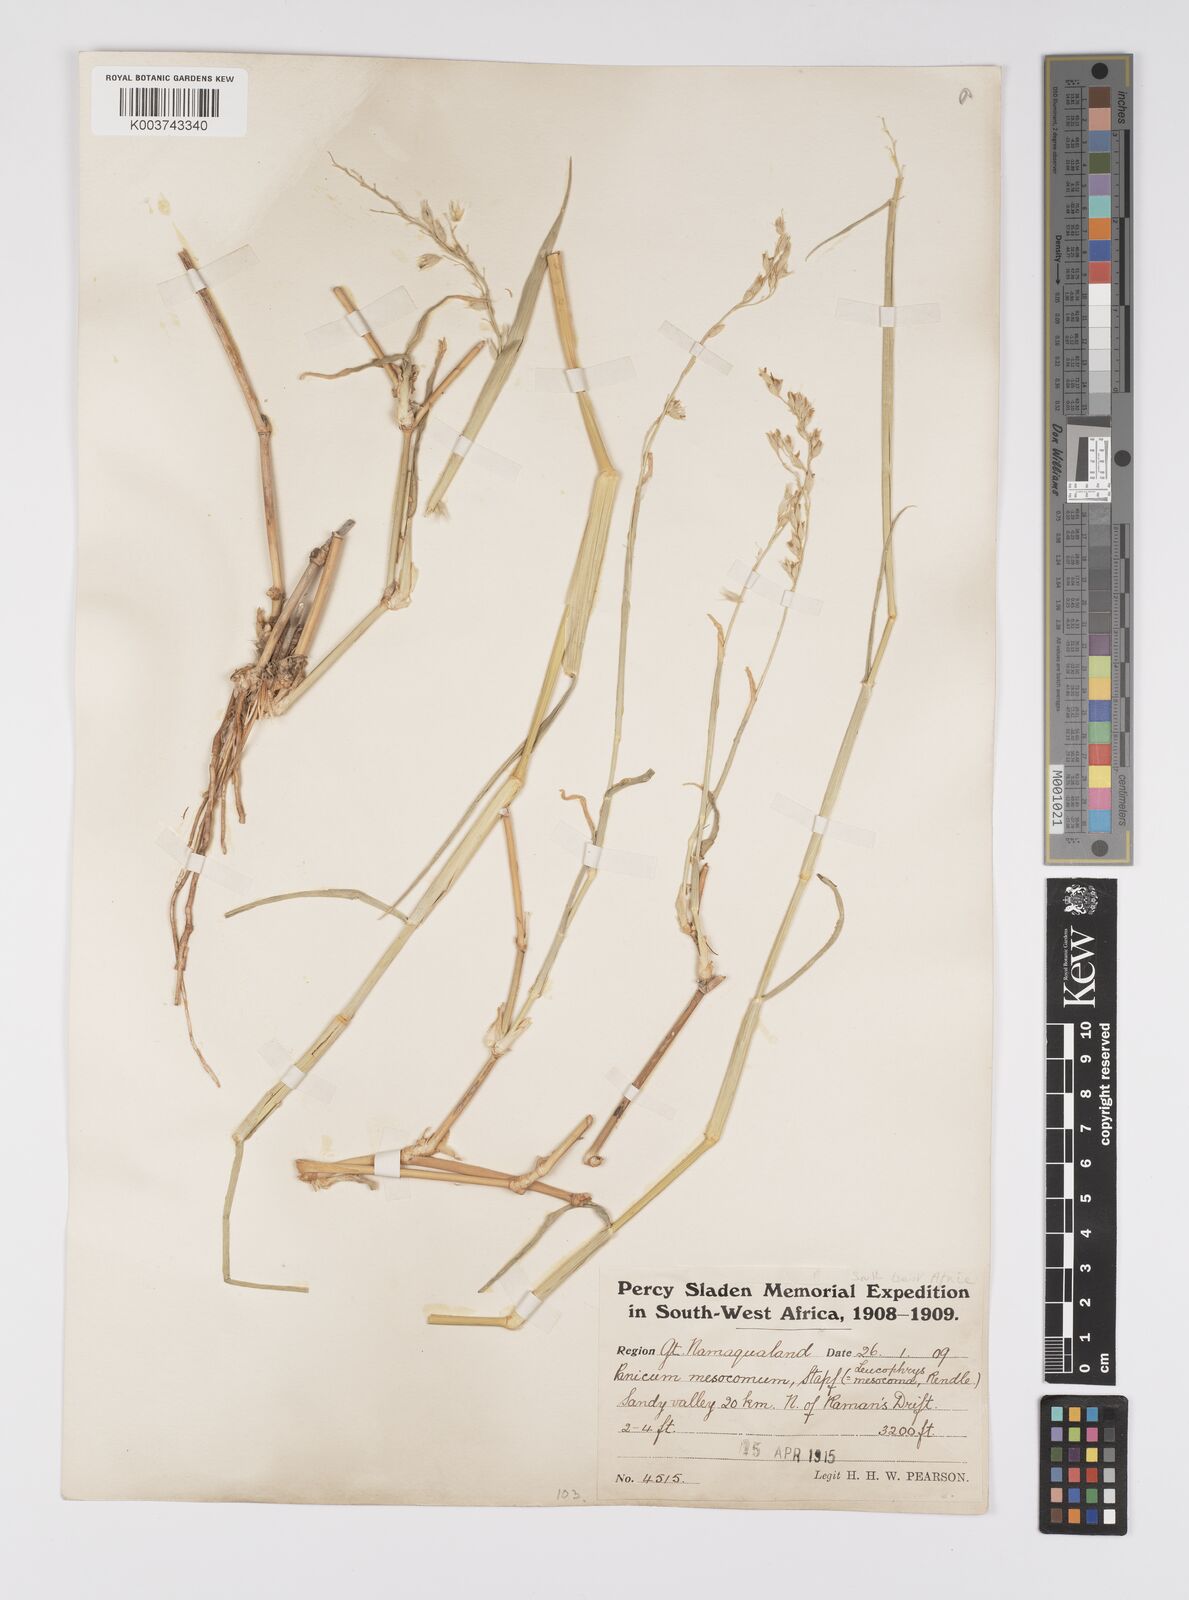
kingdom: Plantae
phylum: Tracheophyta
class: Liliopsida
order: Poales
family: Poaceae
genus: Urochloa
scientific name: Urochloa Brachiaria mesocoma
